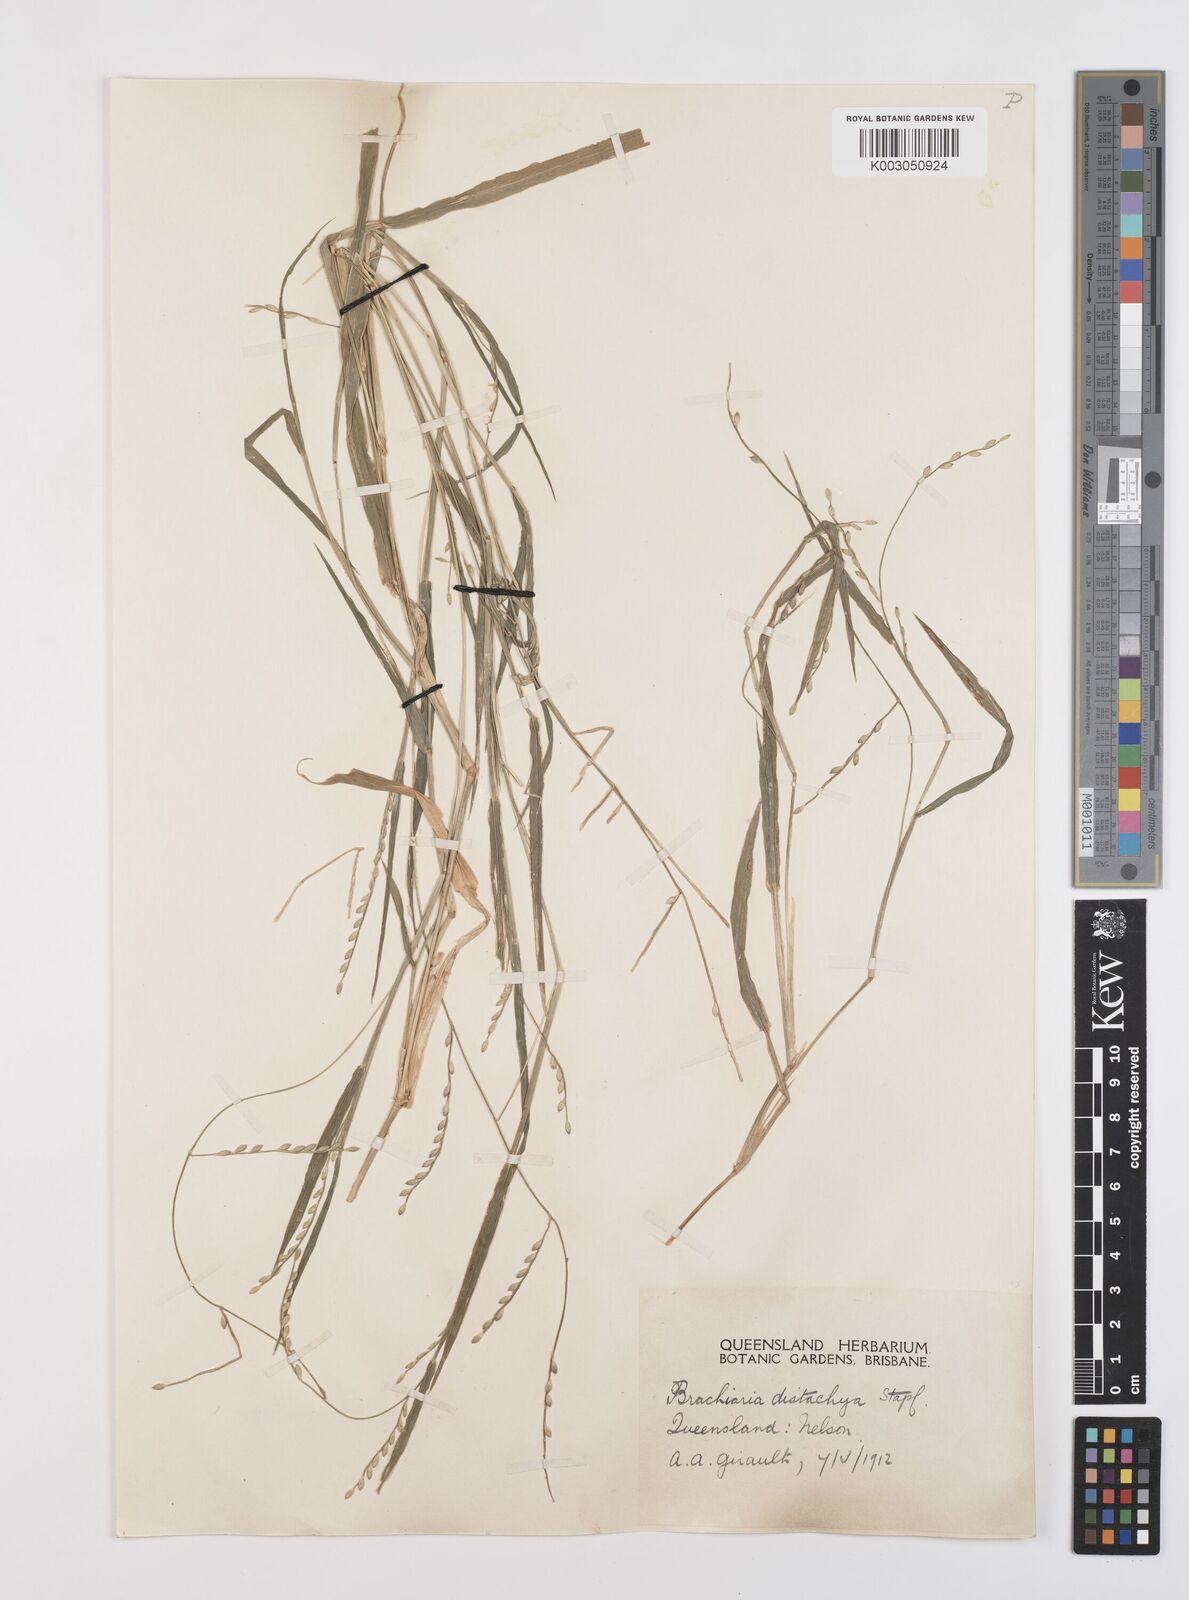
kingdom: Plantae
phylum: Tracheophyta
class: Liliopsida
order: Poales
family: Poaceae
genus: Urochloa
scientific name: Urochloa subquadripara
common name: Armgrass millet
